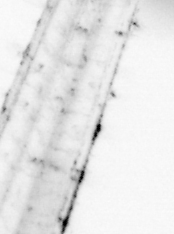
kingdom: Animalia
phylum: Chaetognatha
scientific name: Chaetognatha
